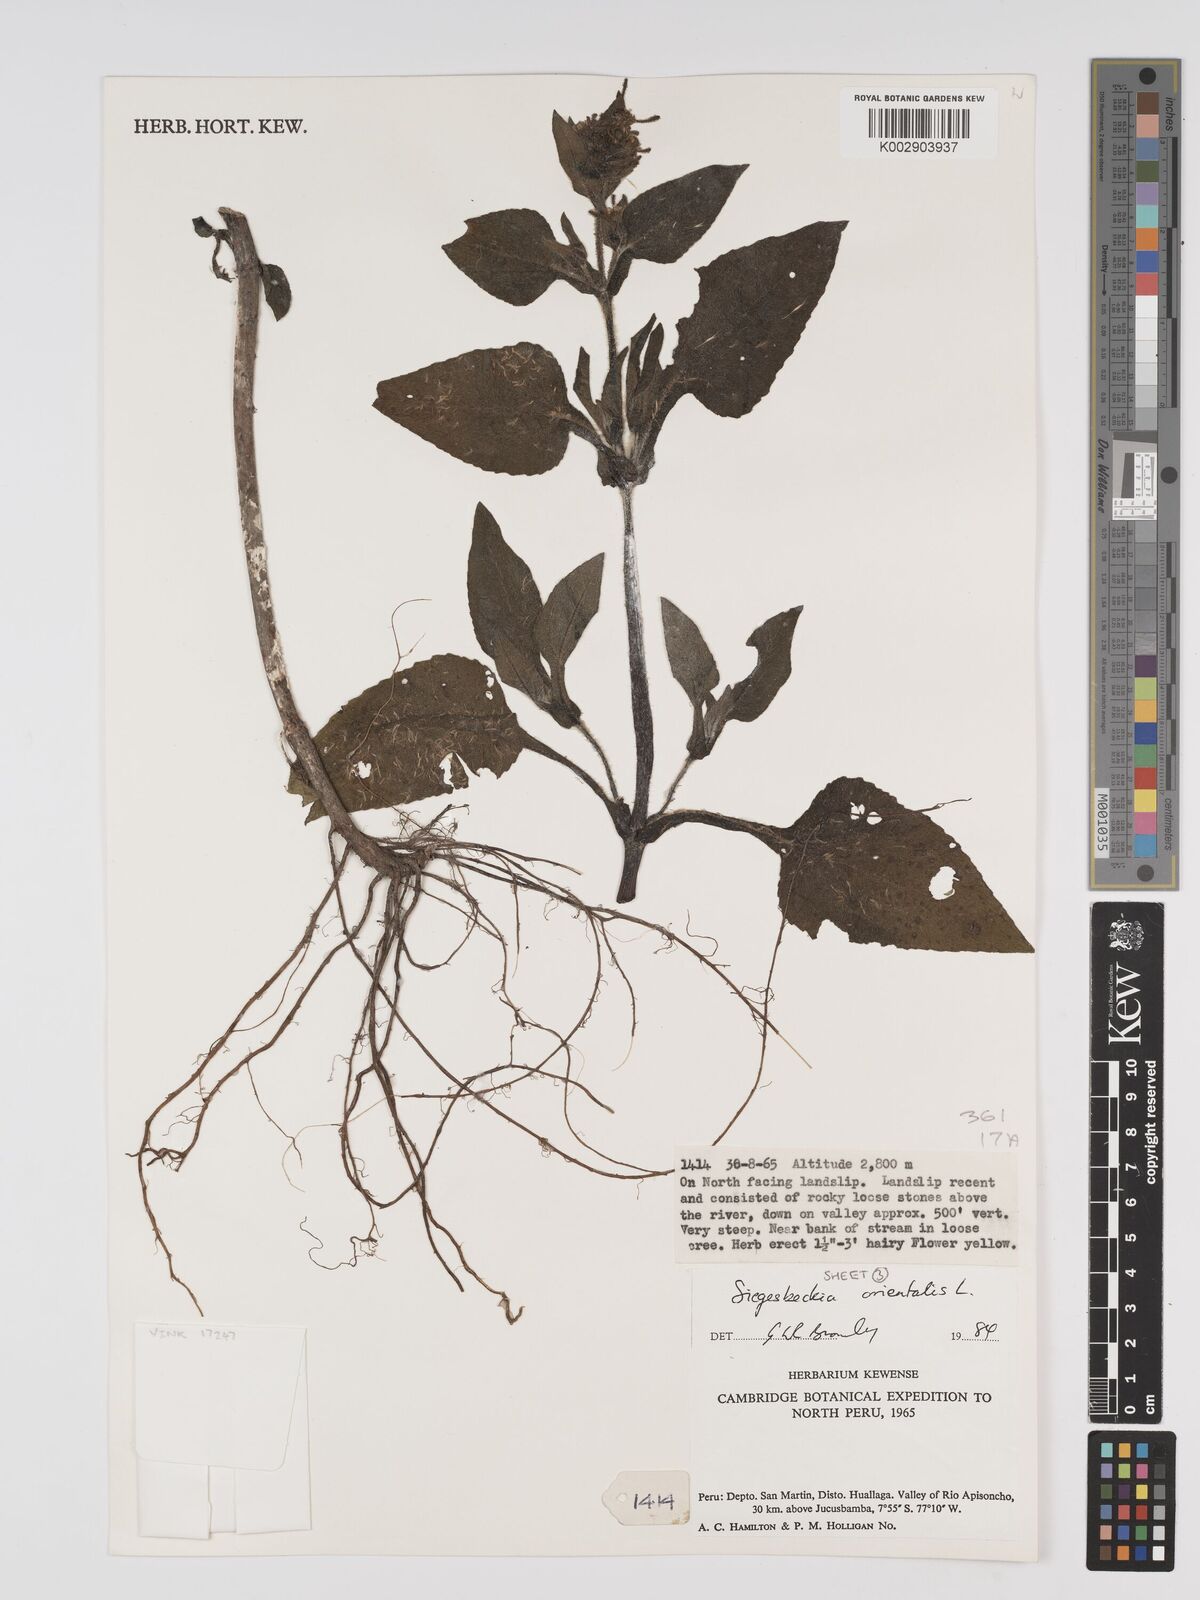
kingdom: Plantae
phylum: Tracheophyta
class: Magnoliopsida
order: Asterales
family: Asteraceae
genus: Sigesbeckia
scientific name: Sigesbeckia orientalis
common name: Eastern st paul's-wort
